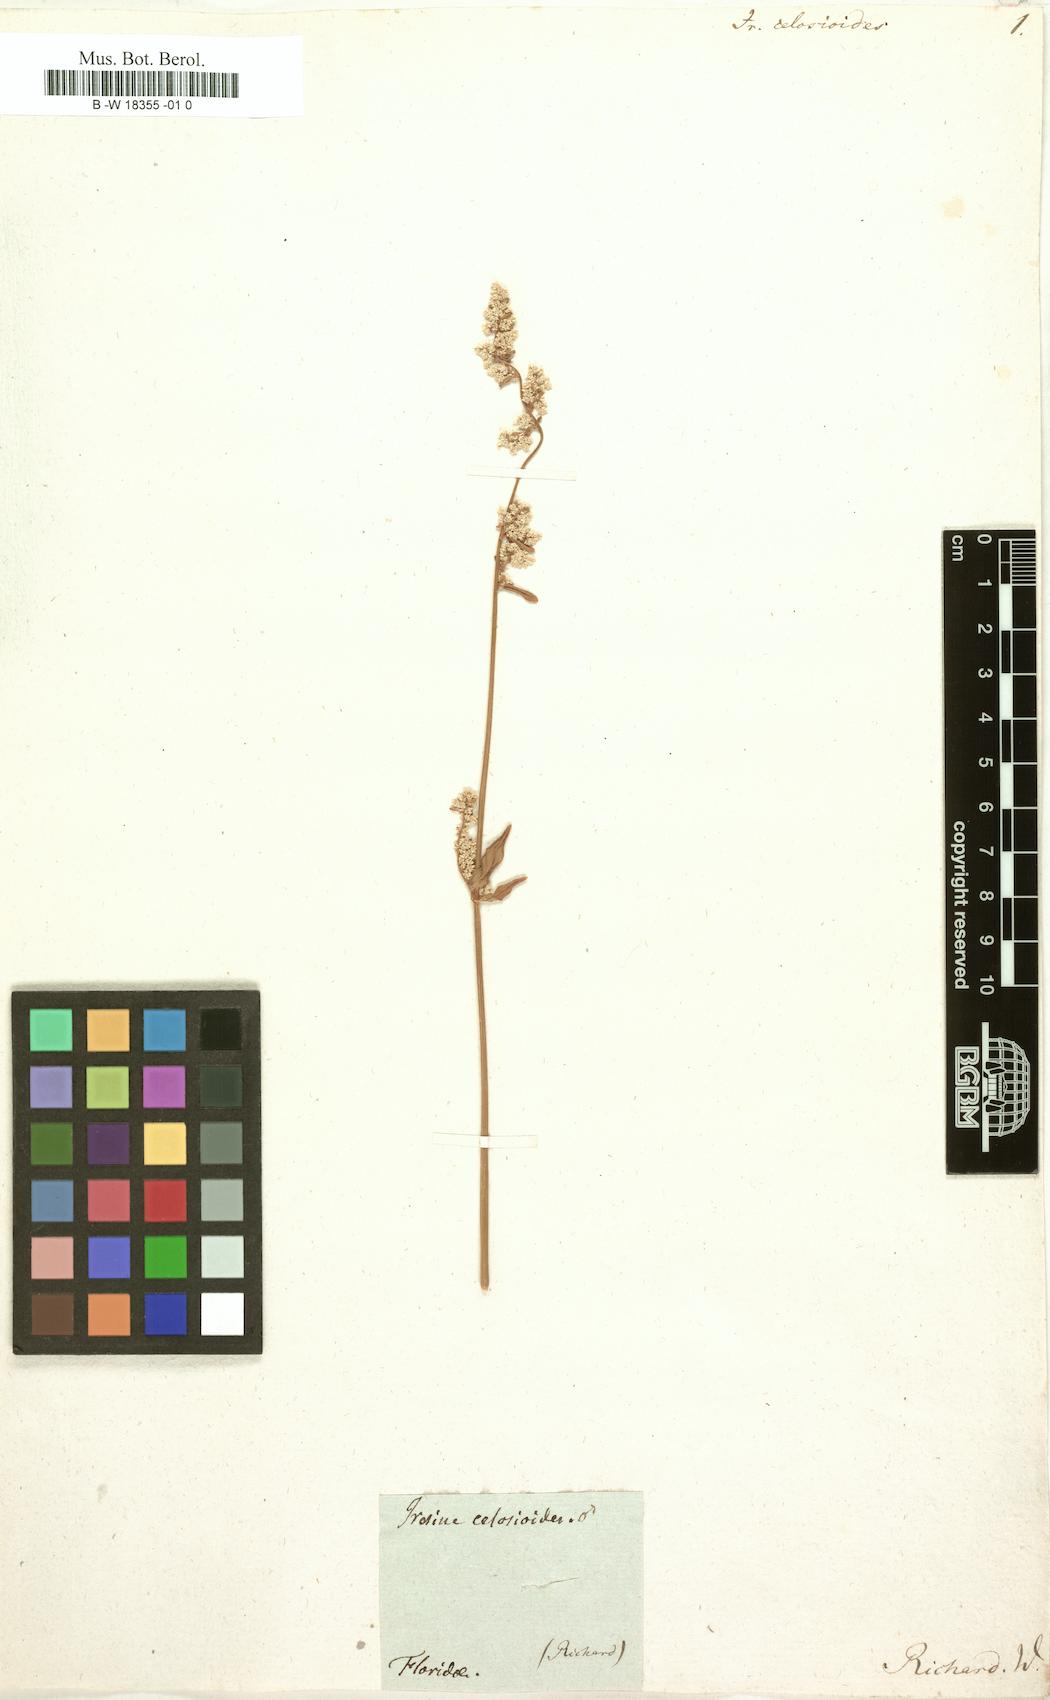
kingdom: Plantae
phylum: Tracheophyta
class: Magnoliopsida
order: Caryophyllales
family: Amaranthaceae
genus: Iresine
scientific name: Iresine rhizomatosa
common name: Juda's-bush
